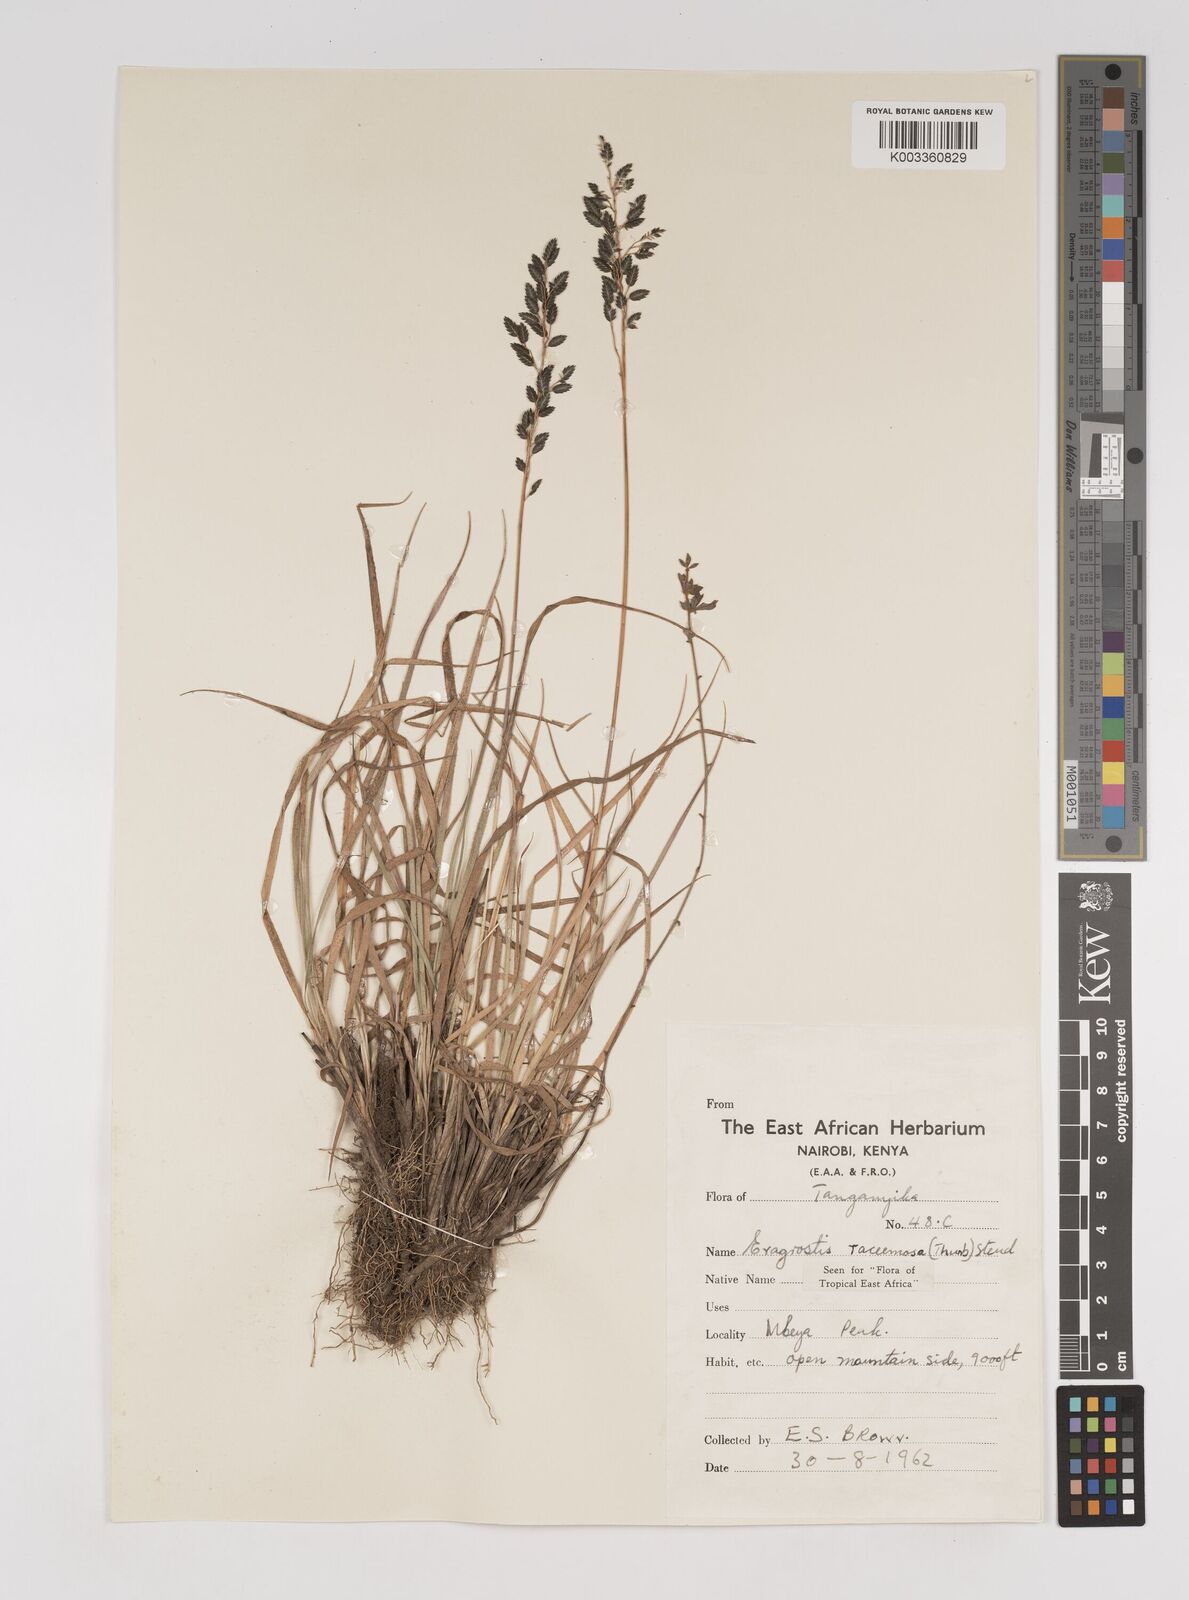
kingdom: Plantae
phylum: Tracheophyta
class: Liliopsida
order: Poales
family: Poaceae
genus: Eragrostis
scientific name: Eragrostis racemosa
